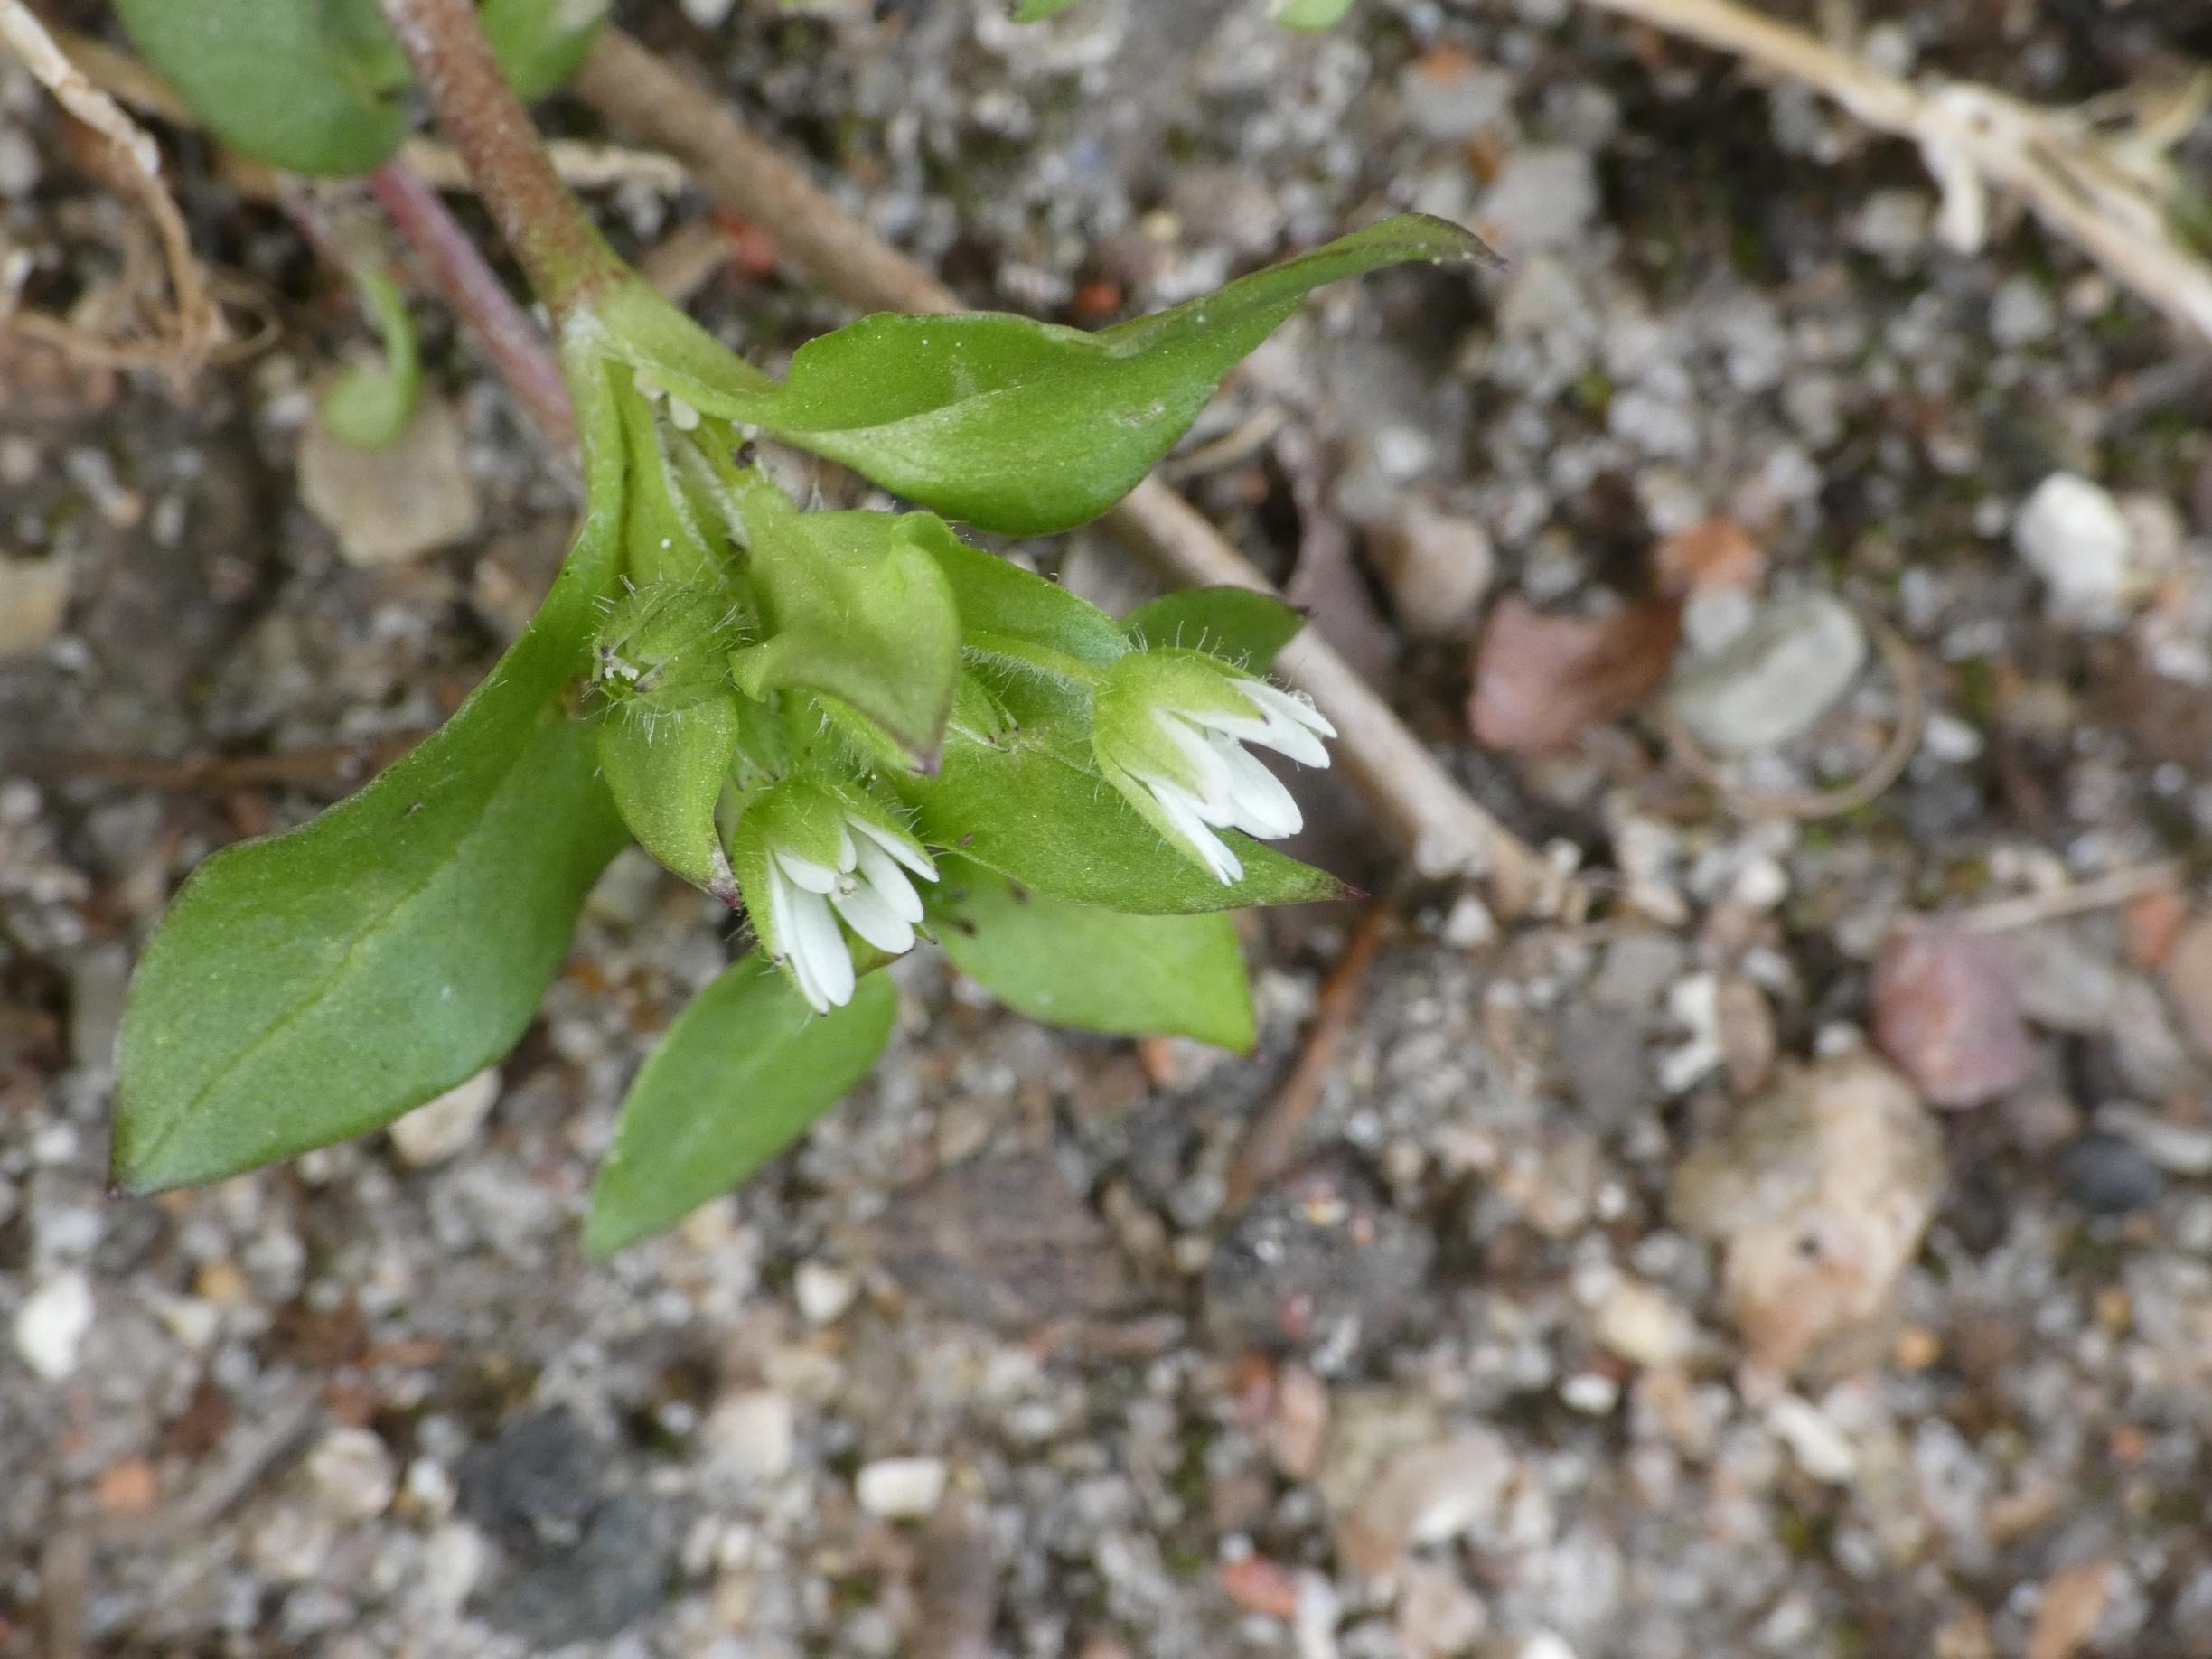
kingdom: Plantae
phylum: Tracheophyta
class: Magnoliopsida
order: Caryophyllales
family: Caryophyllaceae
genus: Stellaria
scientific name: Stellaria media
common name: Almindelig fuglegræs
